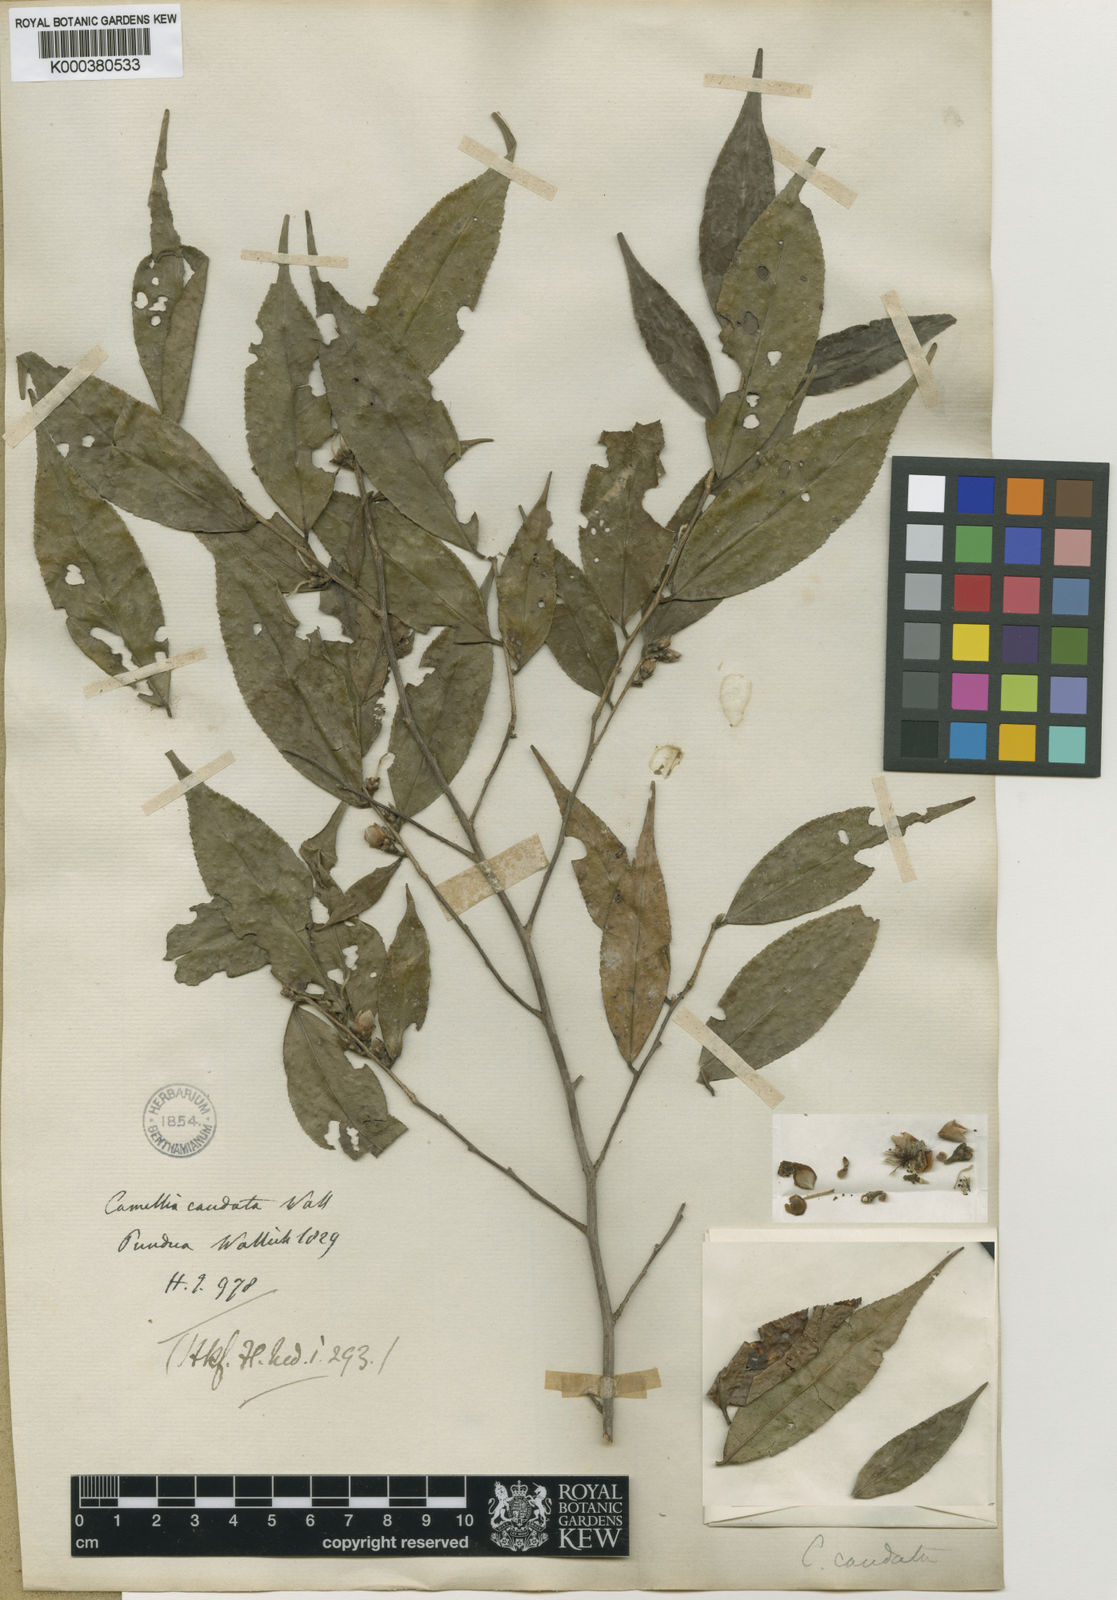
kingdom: Plantae
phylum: Tracheophyta
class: Magnoliopsida
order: Ericales
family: Theaceae
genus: Camellia
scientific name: Camellia caudata
